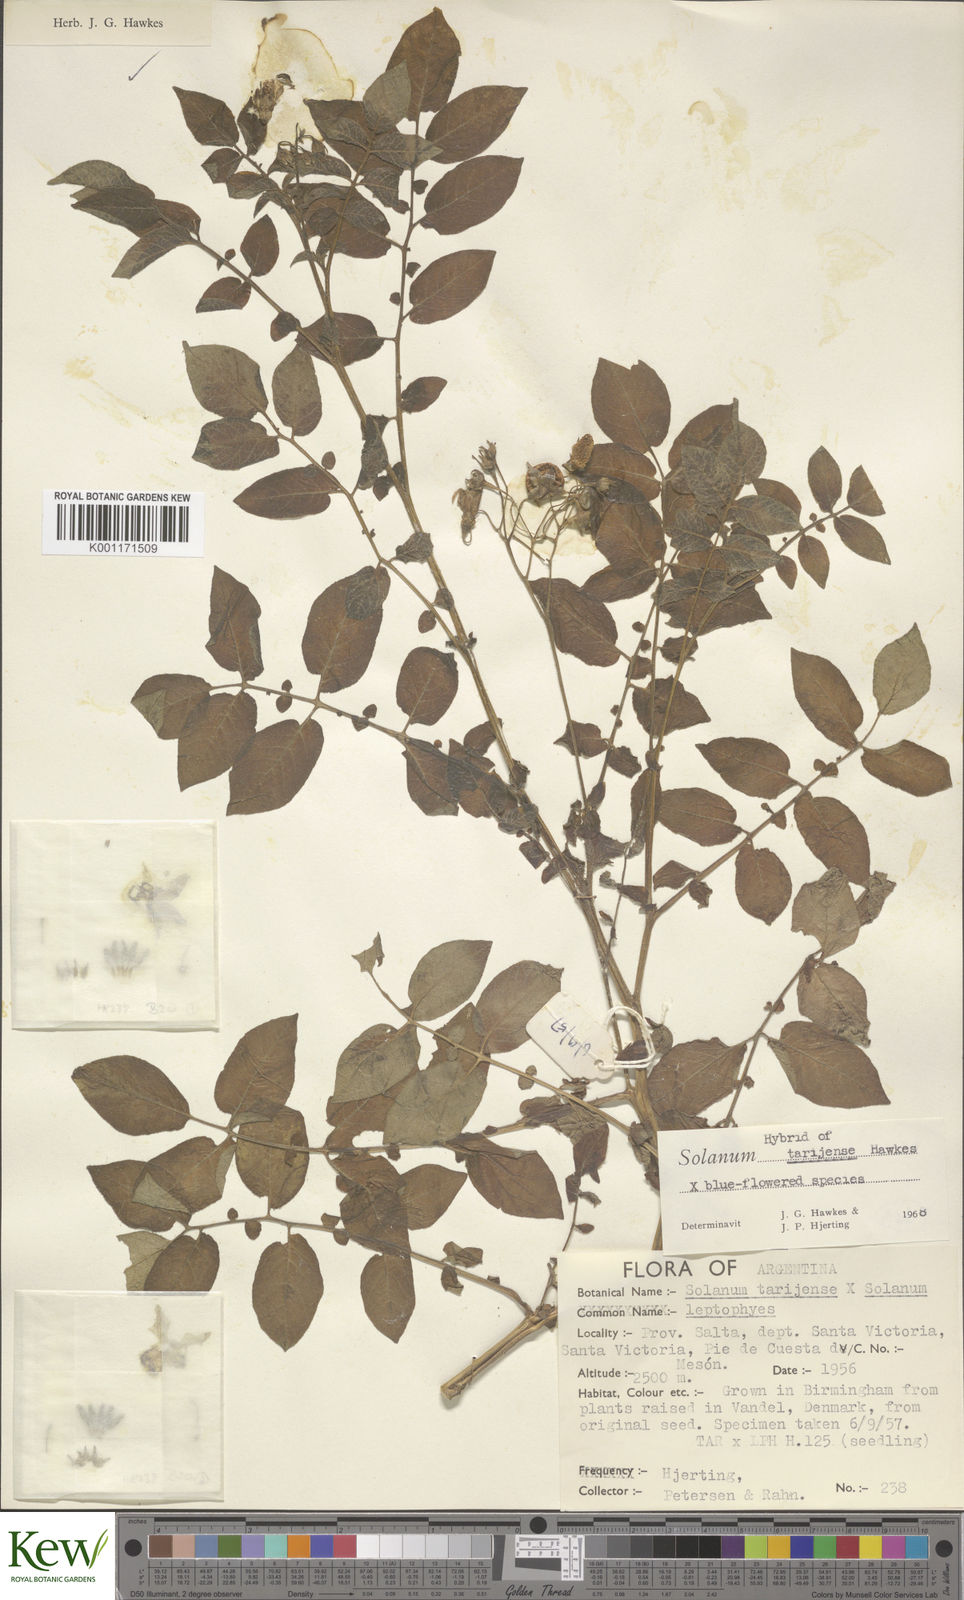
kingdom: Plantae
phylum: Tracheophyta
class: Magnoliopsida
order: Solanales
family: Solanaceae
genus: Solanum
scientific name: Solanum tarijense
